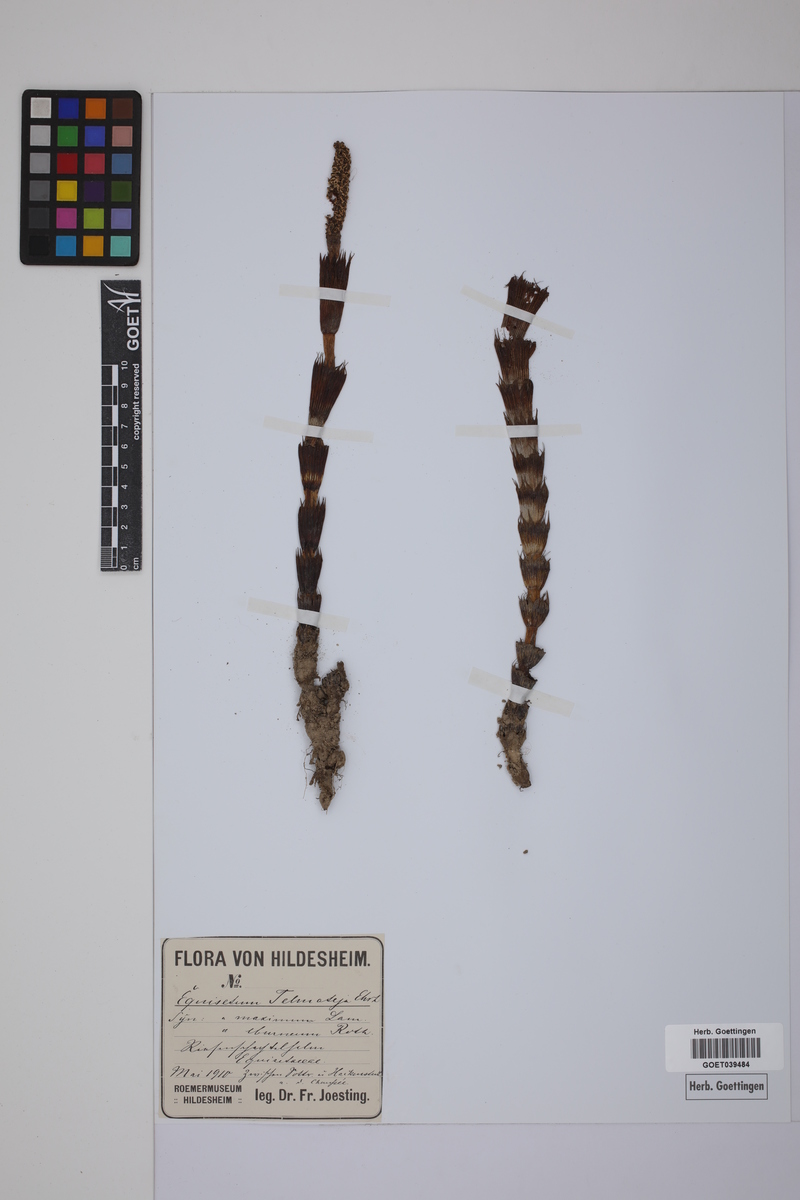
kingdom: Plantae
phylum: Tracheophyta
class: Polypodiopsida
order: Equisetales
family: Equisetaceae
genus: Equisetum
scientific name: Equisetum telmateia
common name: Great horsetail
